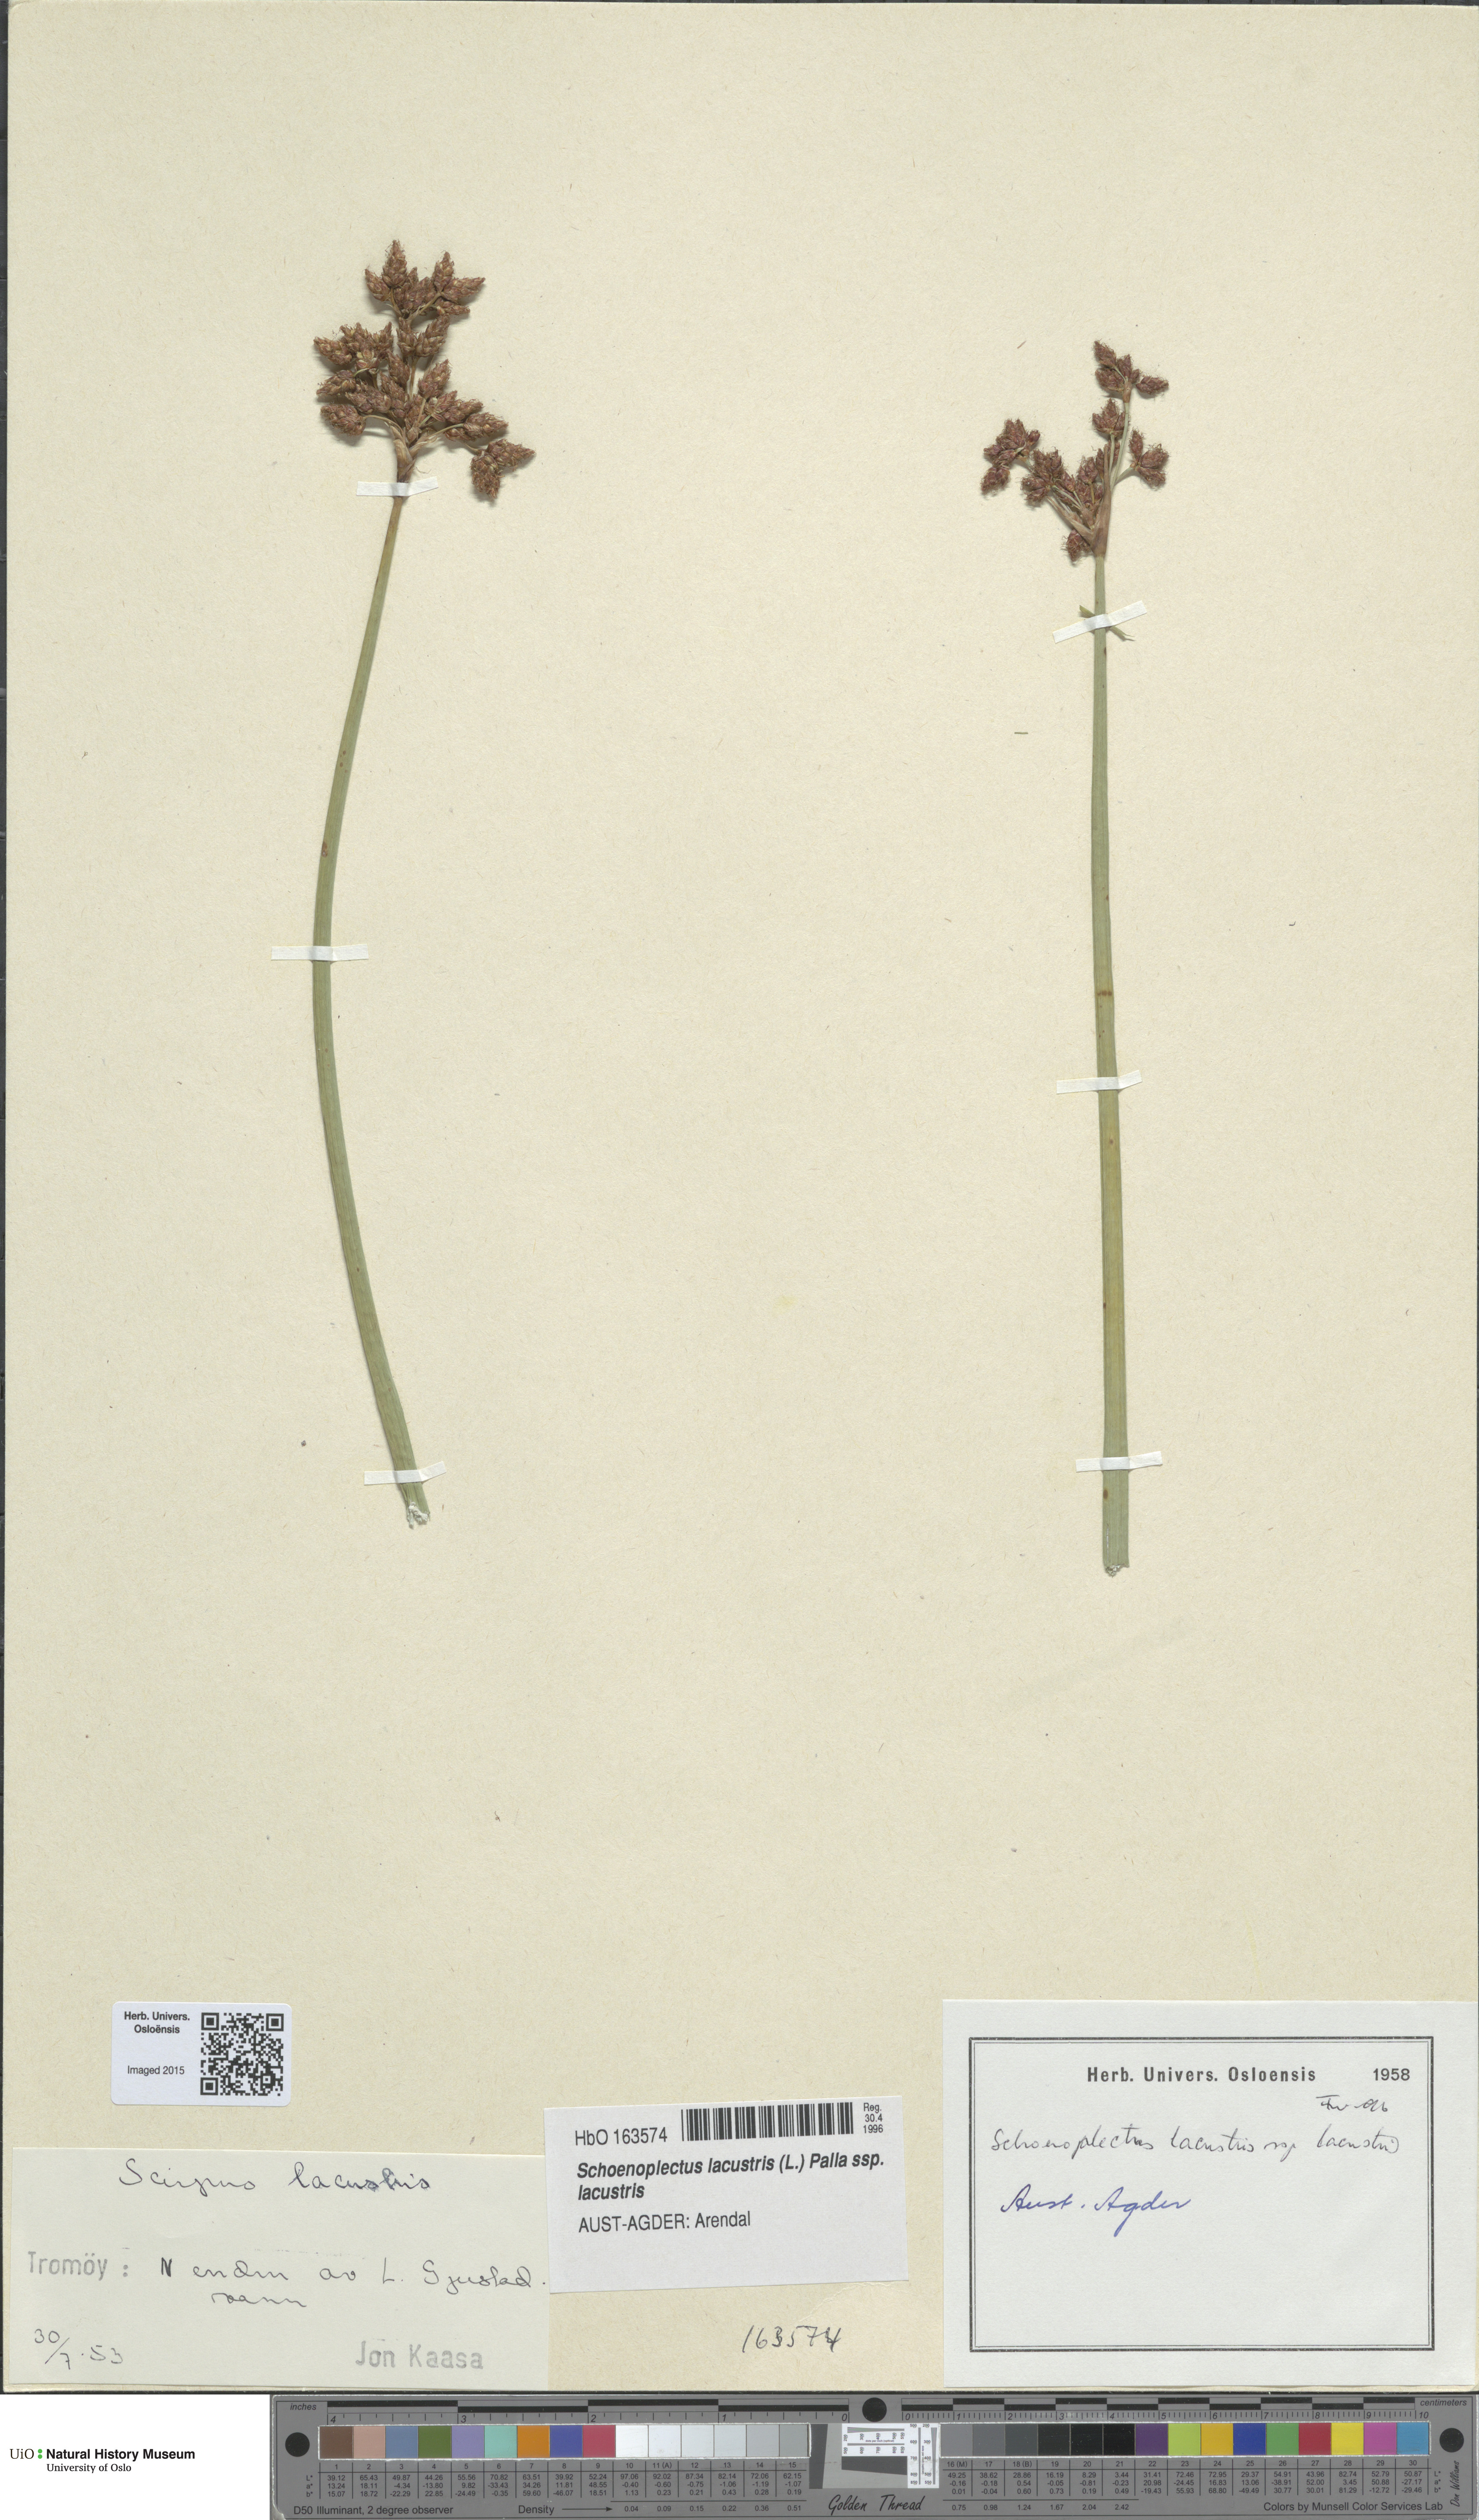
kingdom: Plantae
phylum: Tracheophyta
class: Liliopsida
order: Poales
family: Cyperaceae
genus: Schoenoplectus
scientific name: Schoenoplectus lacustris
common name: Common club-rush
